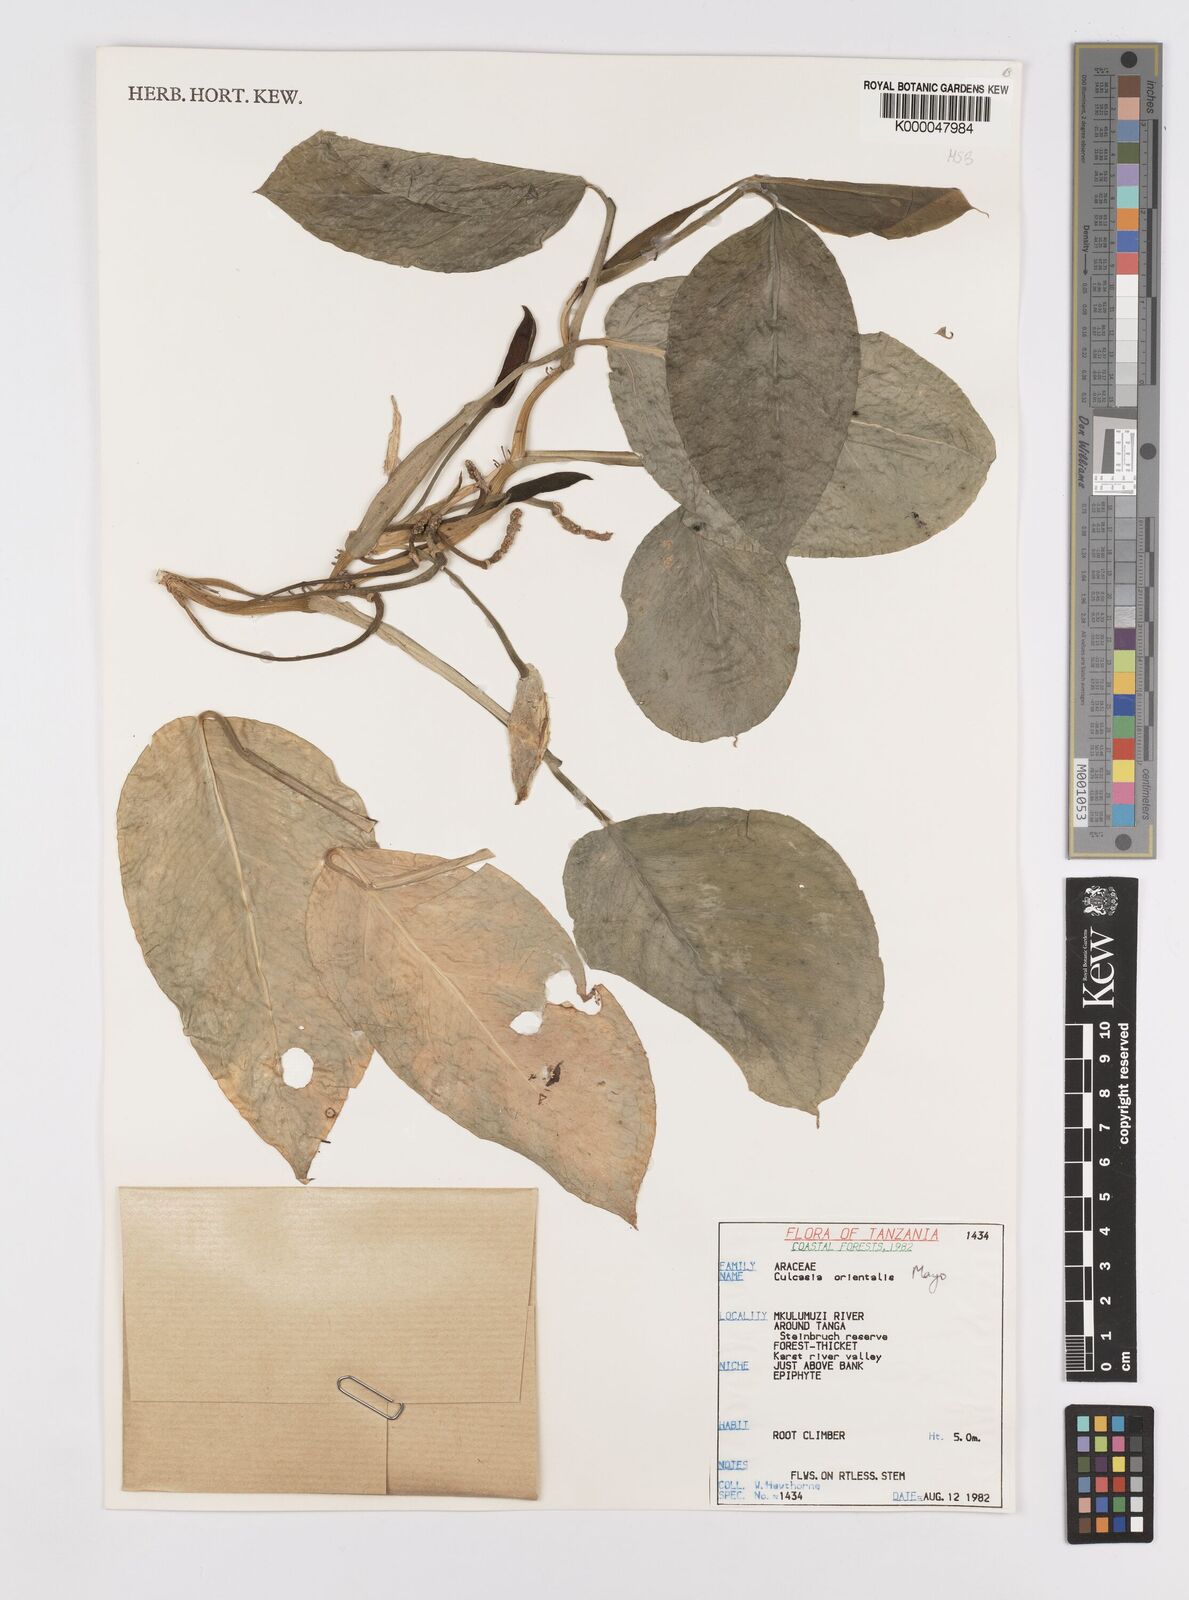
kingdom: Plantae
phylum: Tracheophyta
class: Liliopsida
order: Alismatales
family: Araceae
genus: Culcasia
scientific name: Culcasia orientalis
